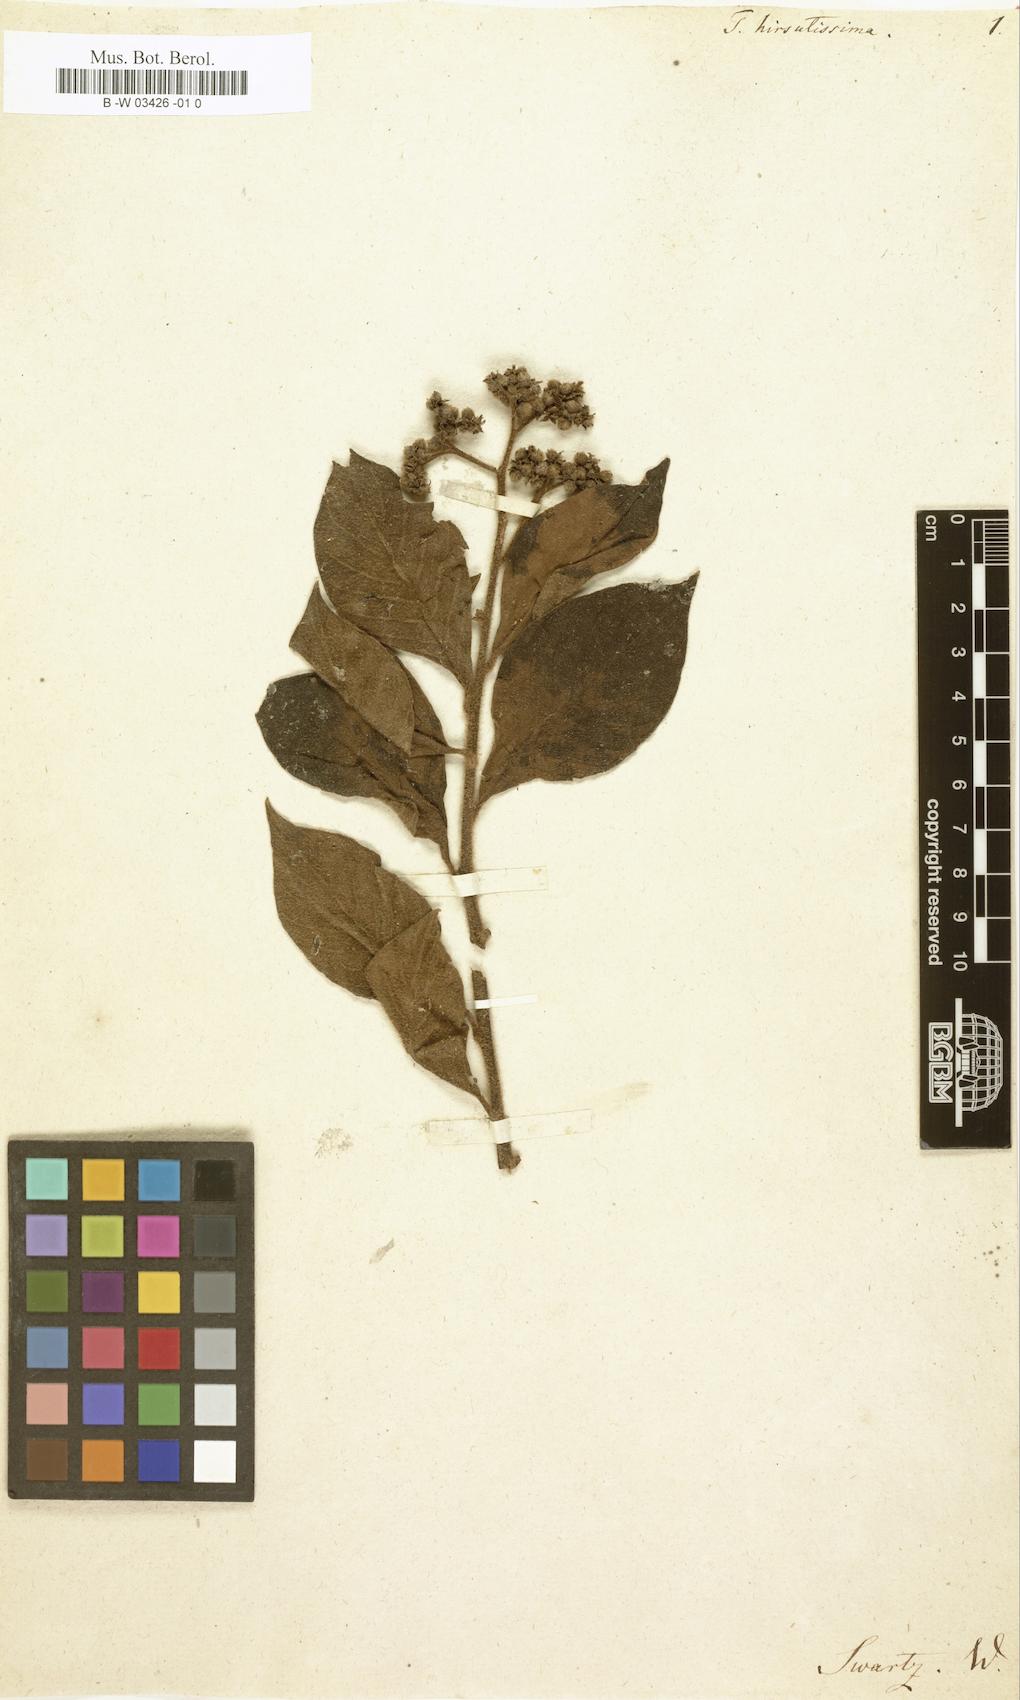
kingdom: Plantae
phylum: Tracheophyta
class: Magnoliopsida
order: Boraginales
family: Heliotropiaceae
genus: Heliotropium
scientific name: Heliotropium
